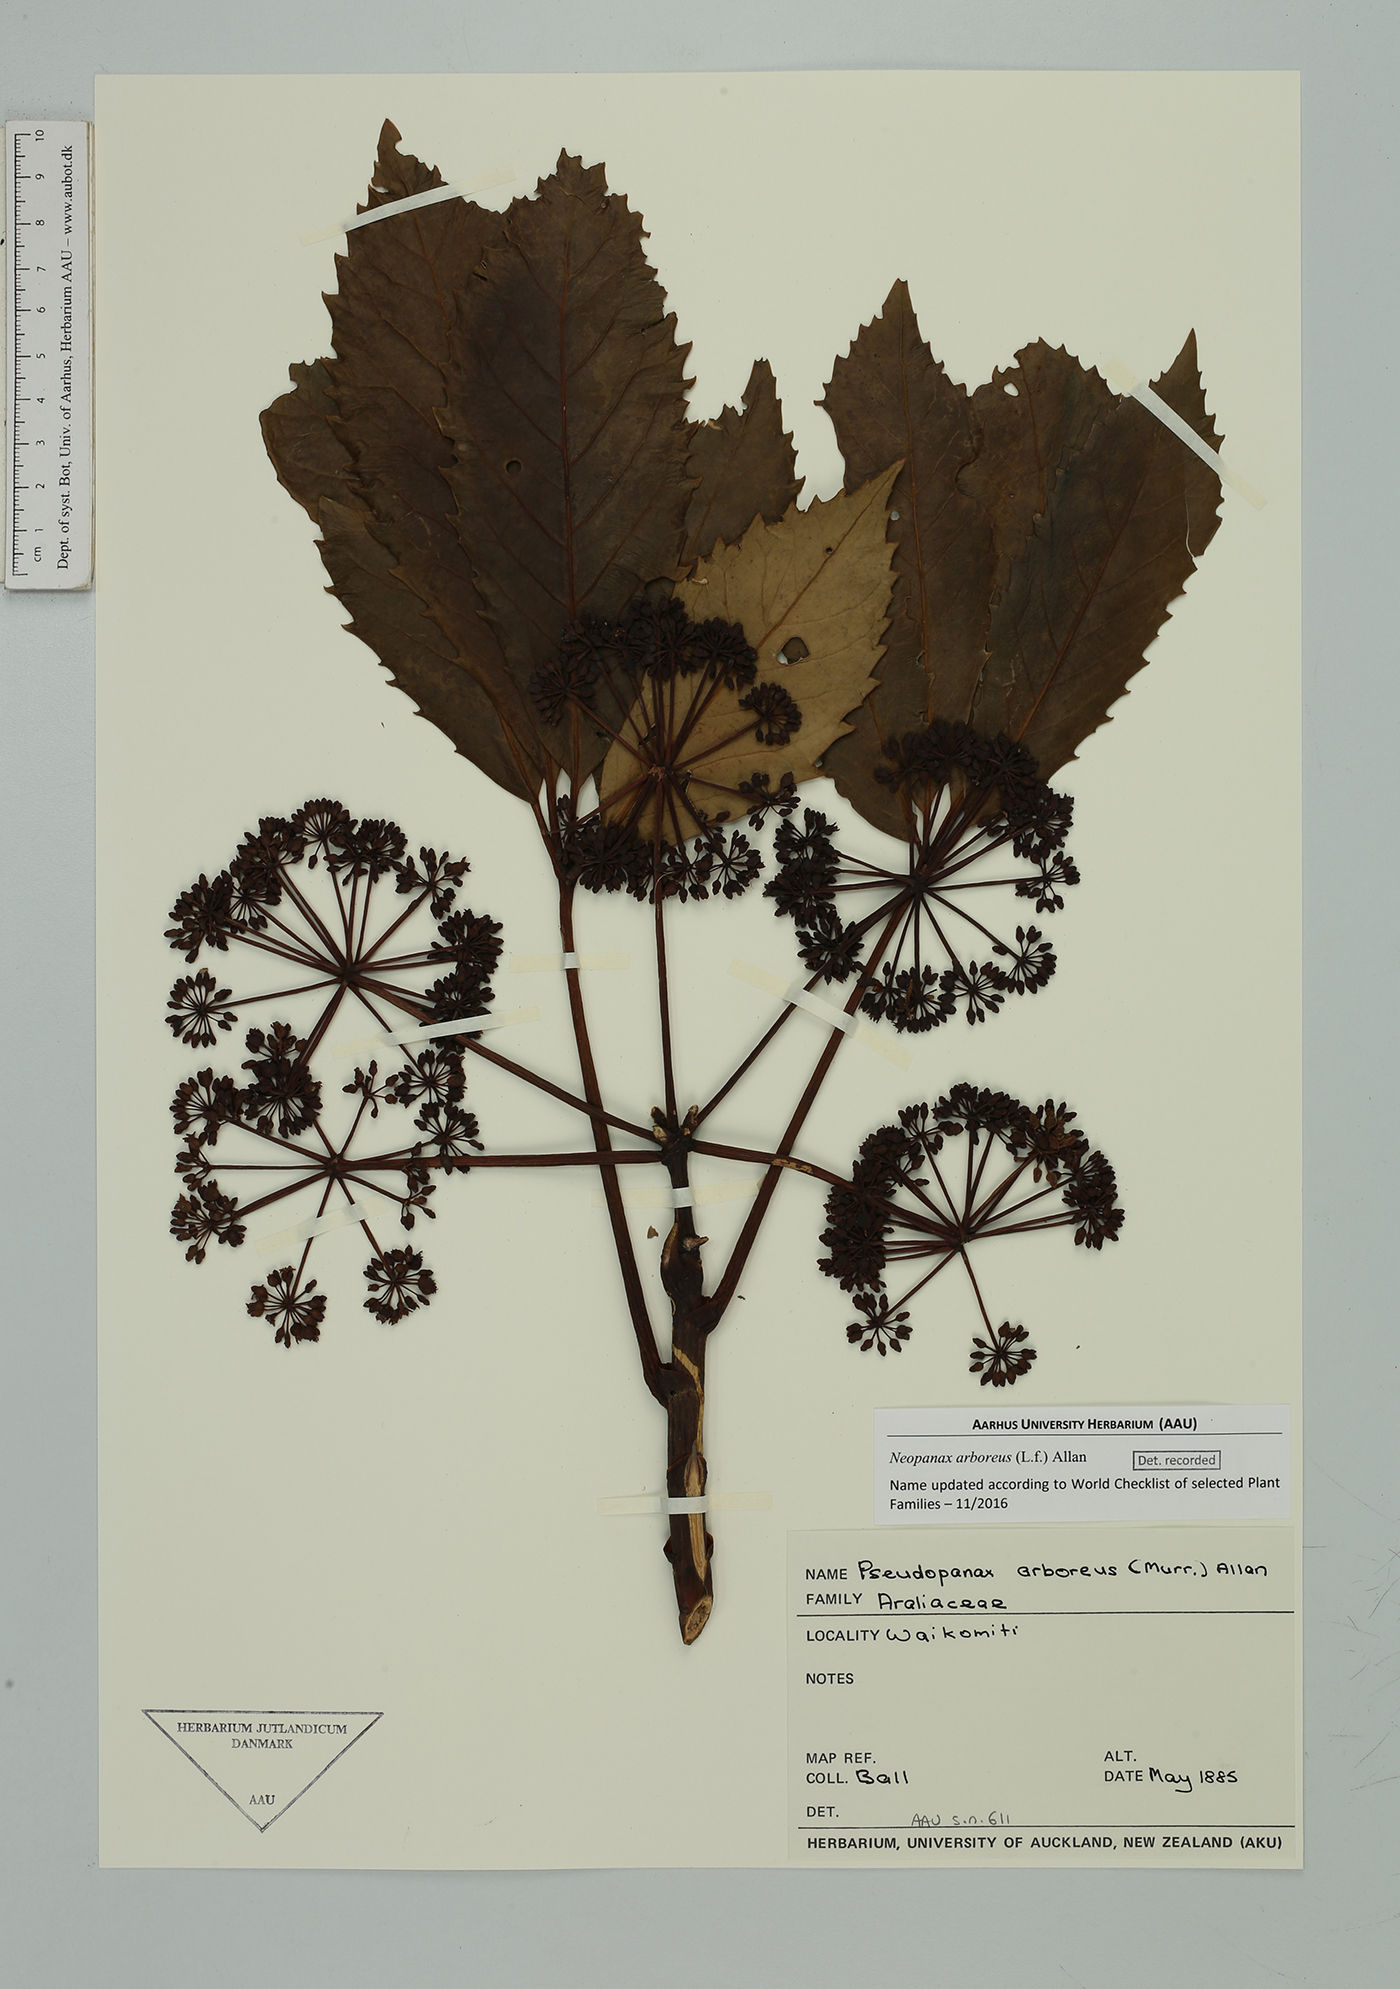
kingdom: Plantae
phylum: Tracheophyta
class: Magnoliopsida
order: Apiales
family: Araliaceae
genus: Neopanax
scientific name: Neopanax arboreus
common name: Five-fingers
